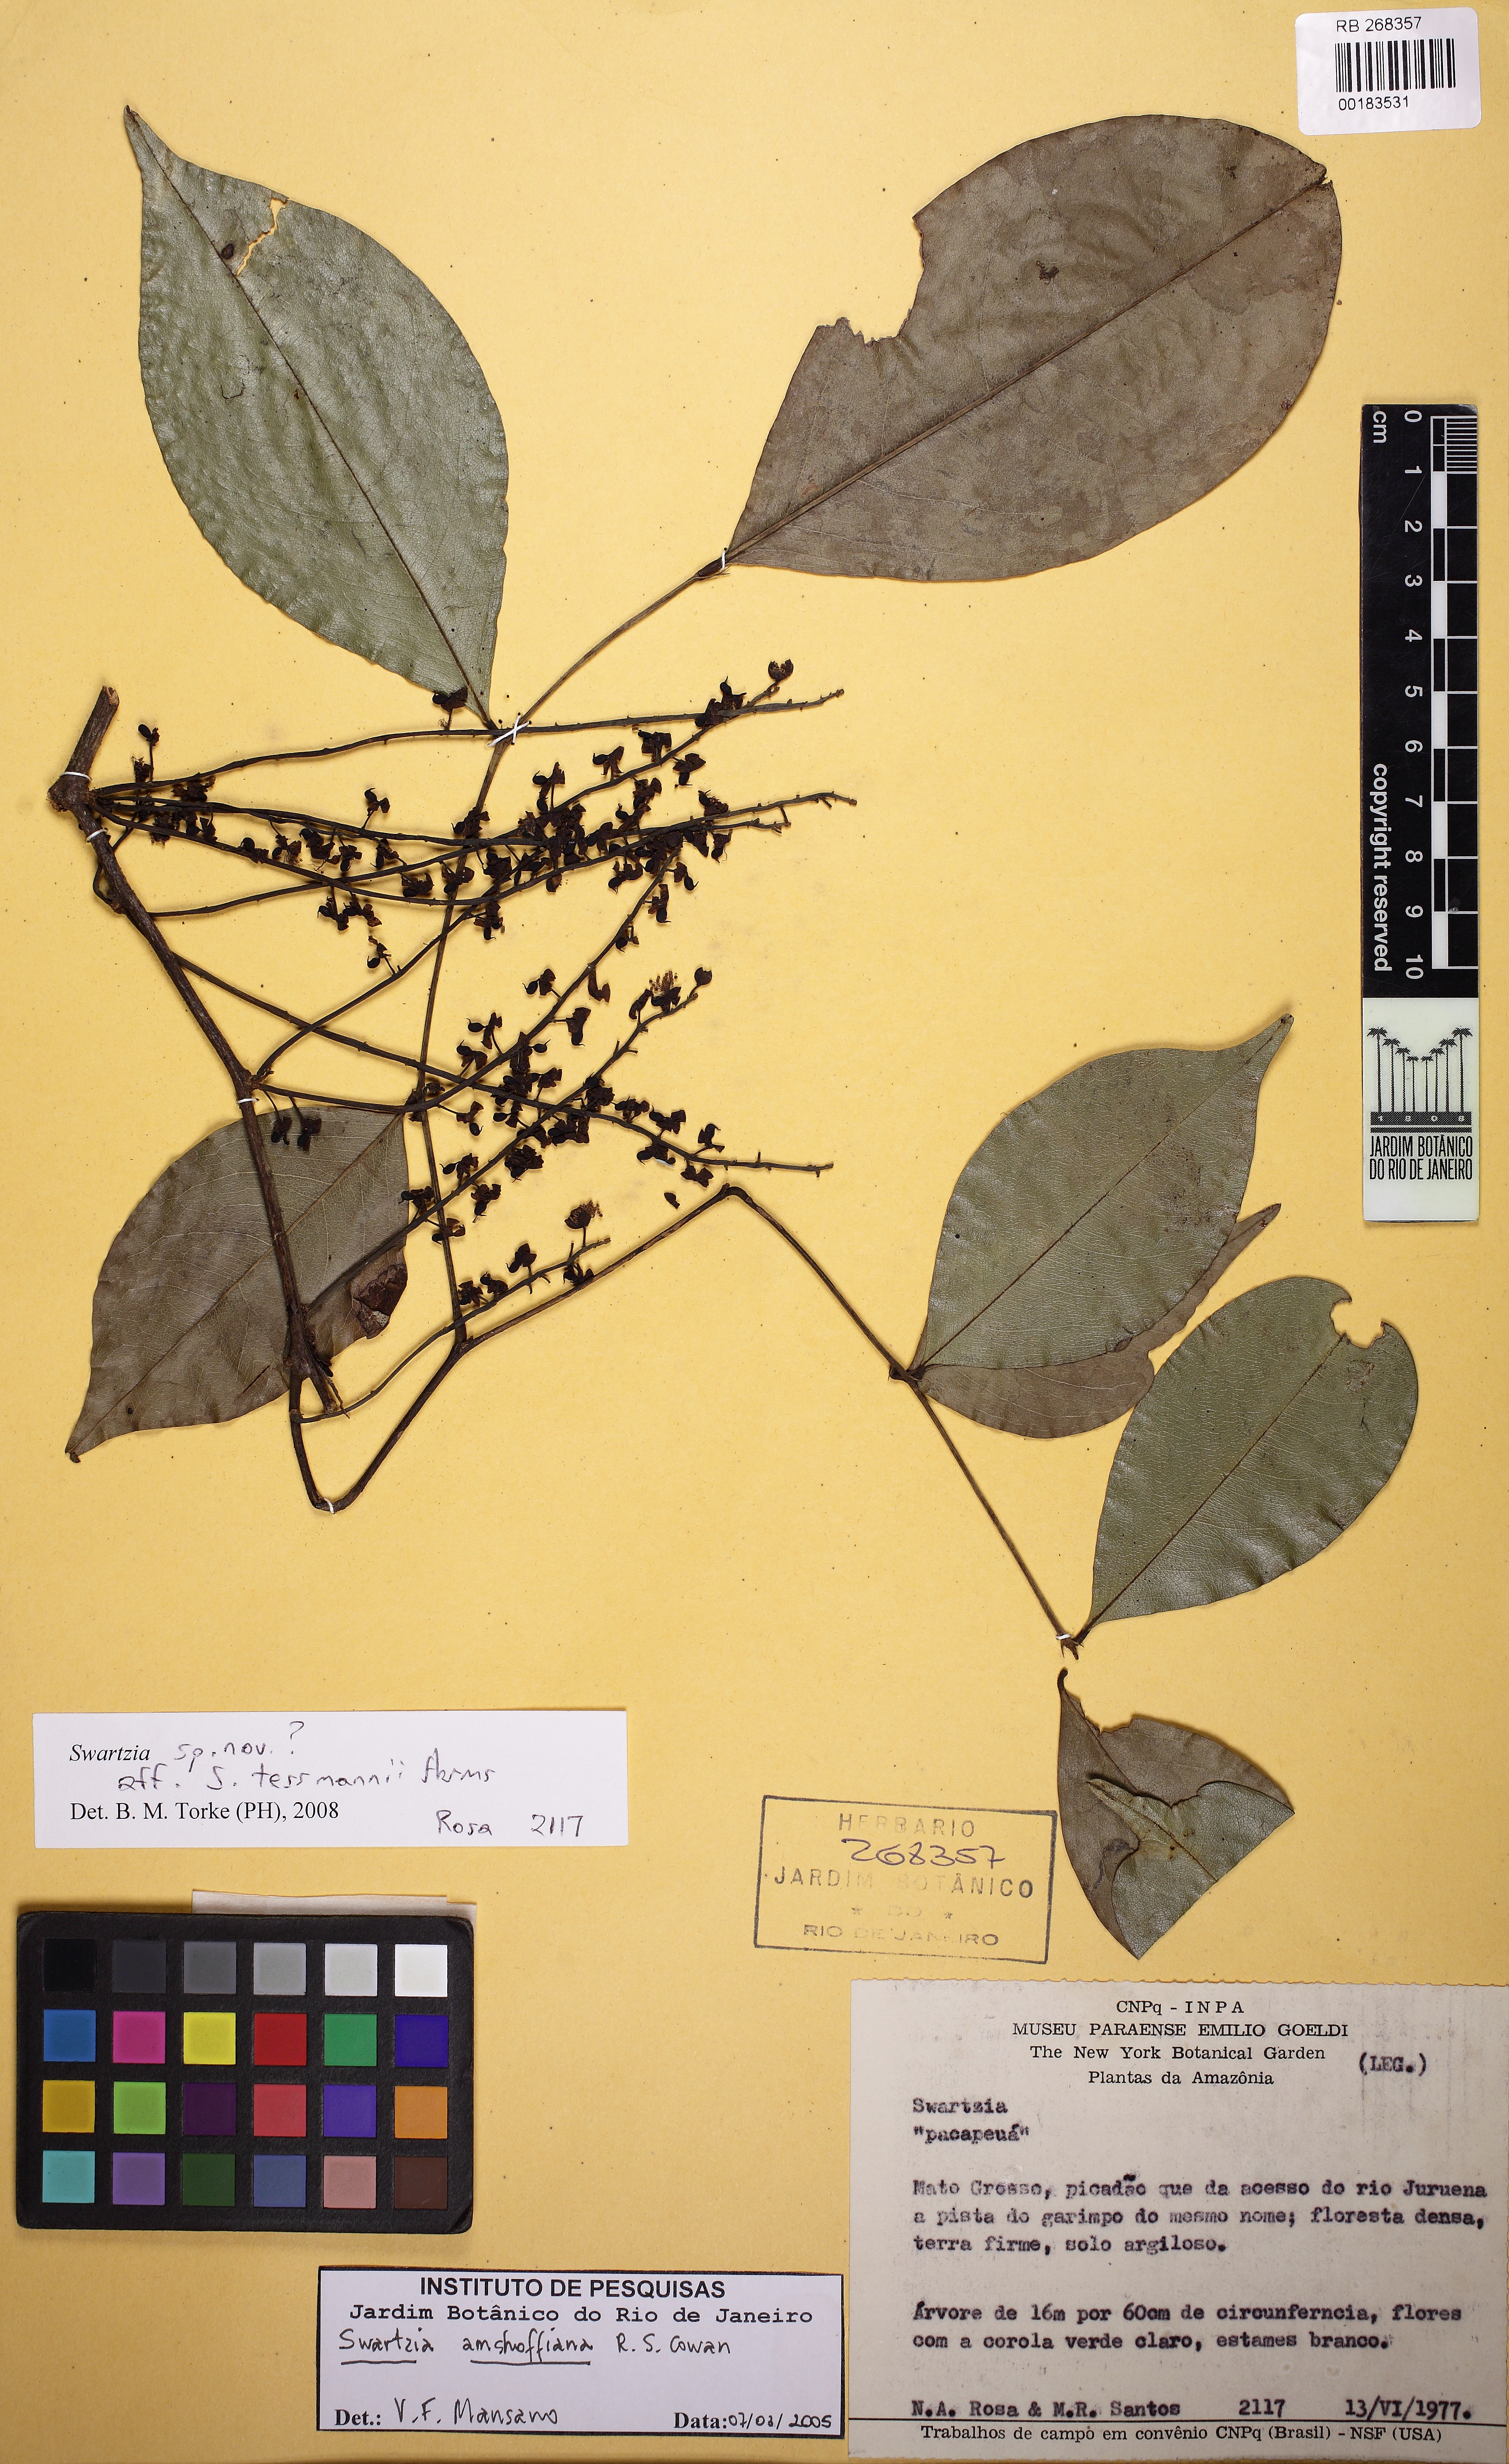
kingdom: Plantae
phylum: Tracheophyta
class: Magnoliopsida
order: Fabales
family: Fabaceae
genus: Swartzia
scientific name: Swartzia tessmannii
